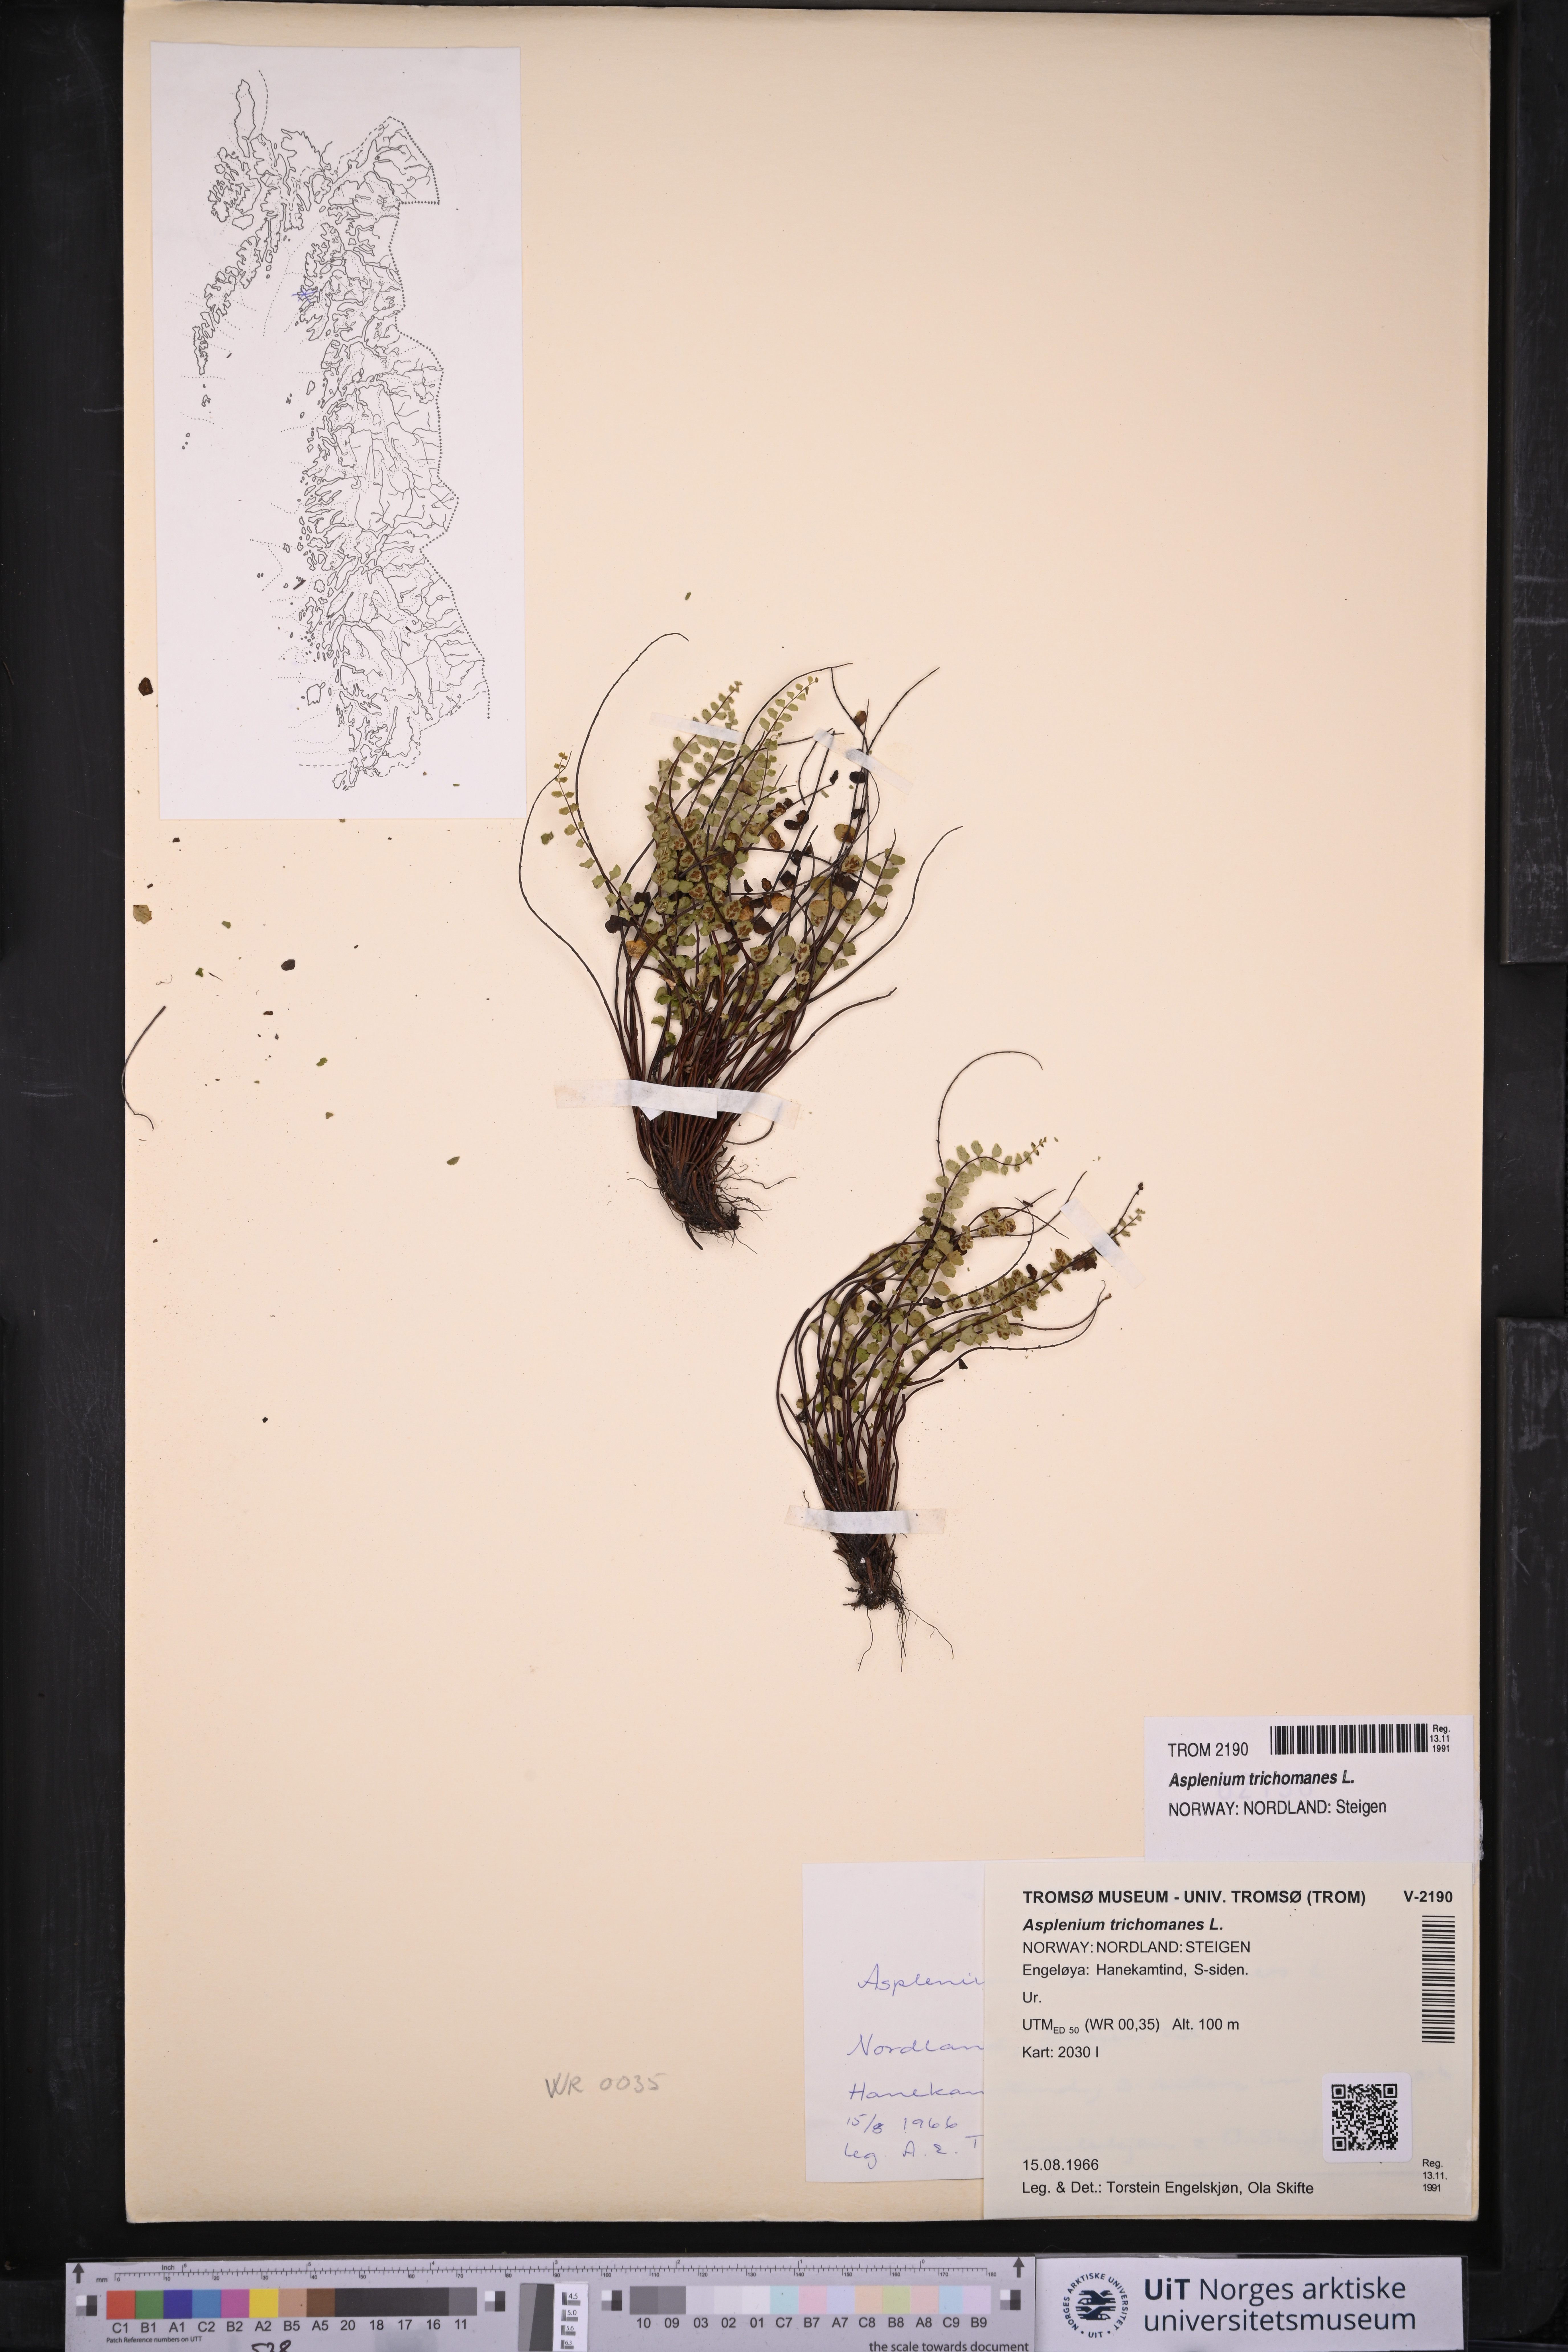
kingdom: Plantae
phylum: Tracheophyta
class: Polypodiopsida
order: Polypodiales
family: Aspleniaceae
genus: Asplenium
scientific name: Asplenium trichomanes
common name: Maidenhair spleenwort
